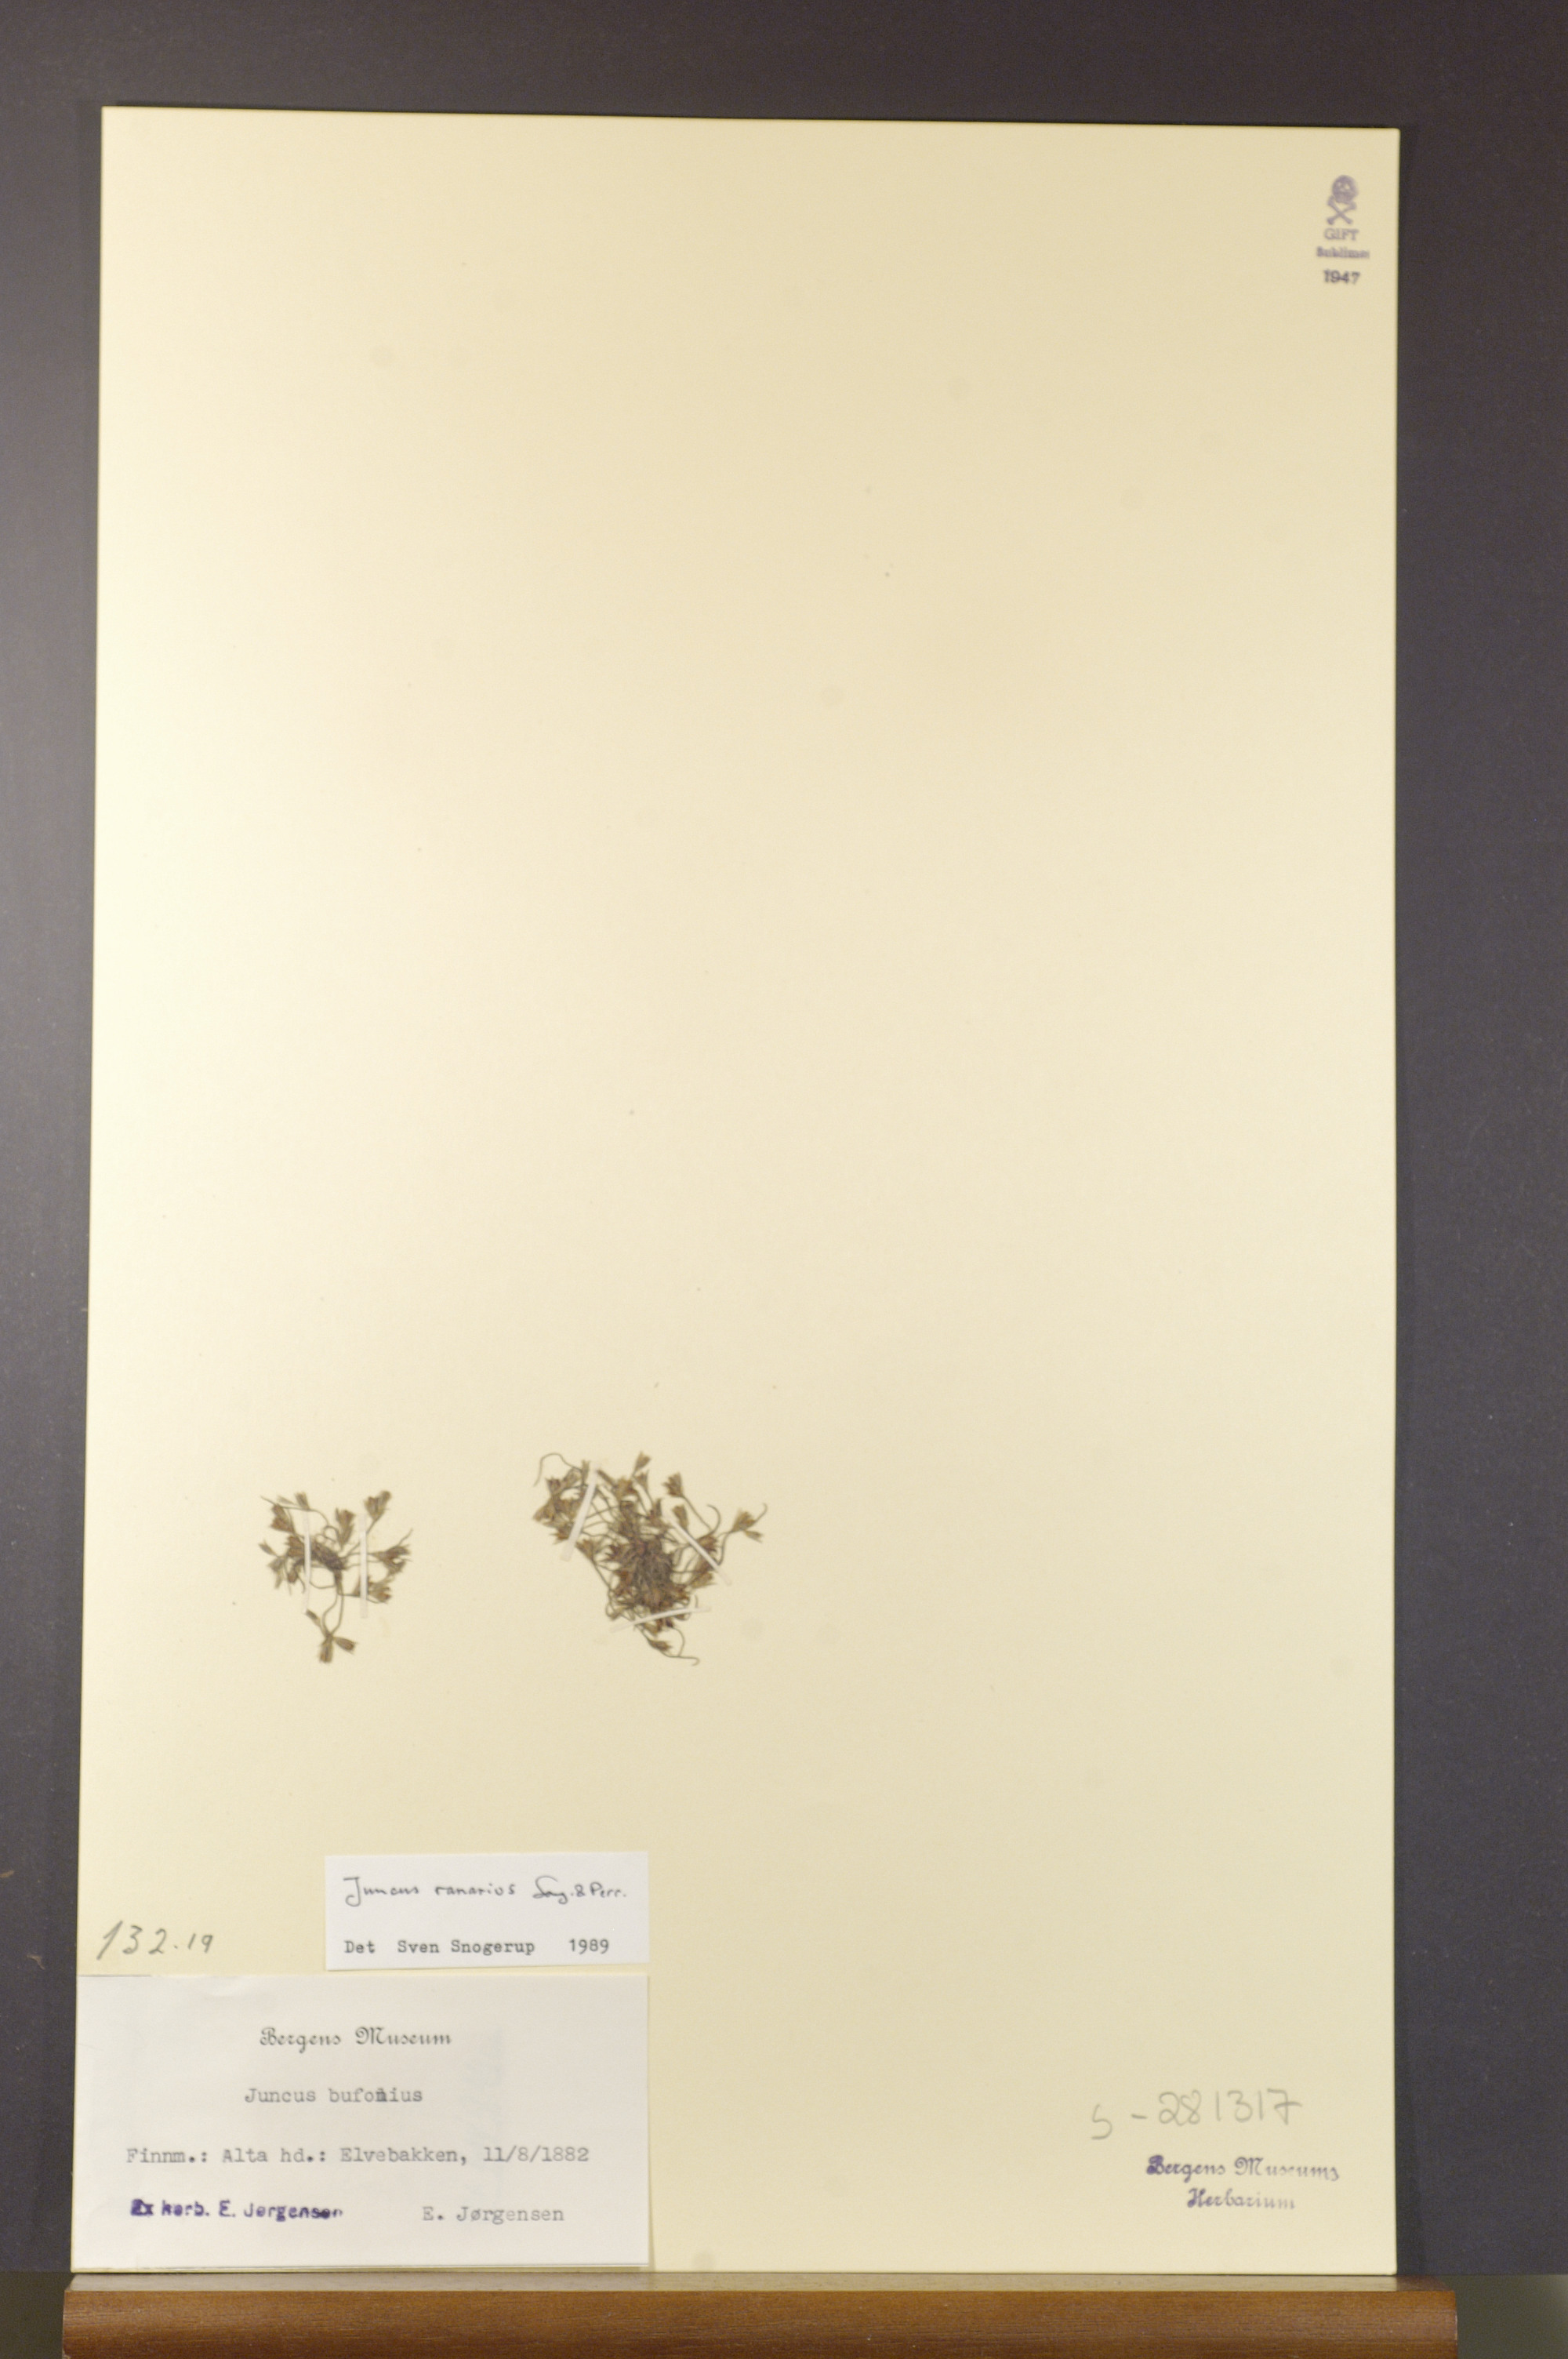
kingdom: Plantae
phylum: Tracheophyta
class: Liliopsida
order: Poales
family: Juncaceae
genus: Juncus
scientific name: Juncus ranarius
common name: Frog rush
